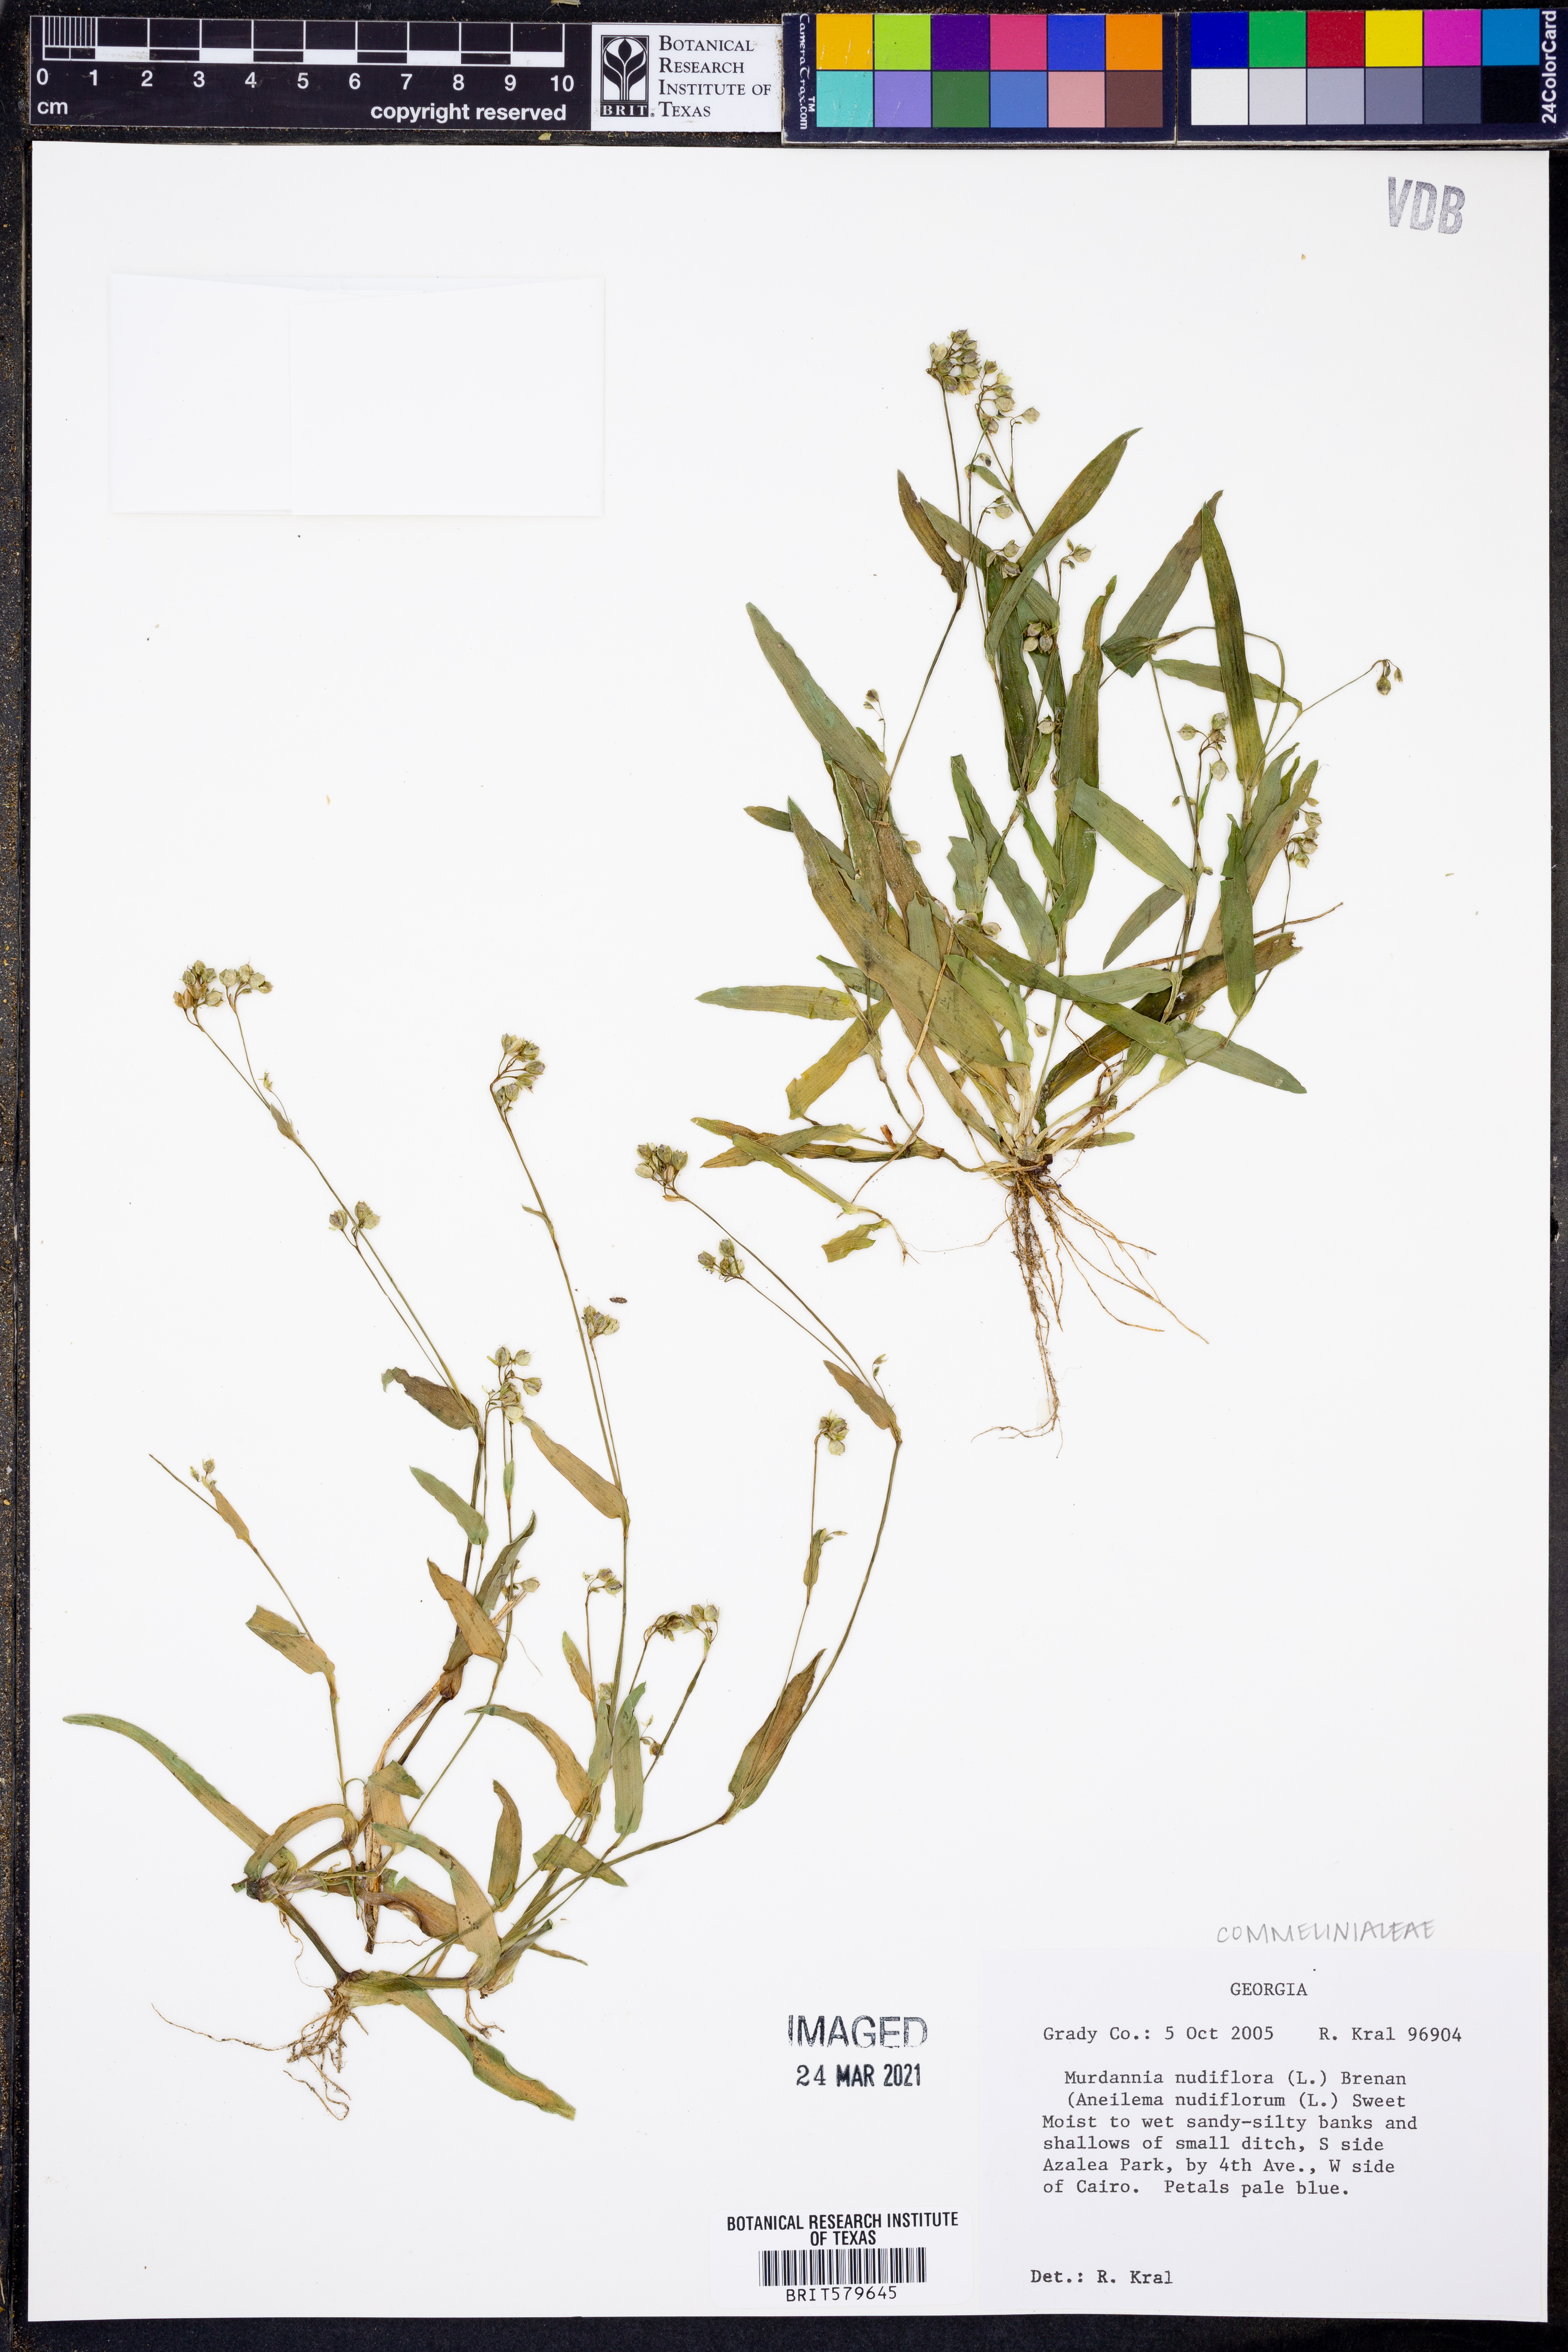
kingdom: Plantae
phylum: Tracheophyta
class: Liliopsida
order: Commelinales
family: Commelinaceae
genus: Murdannia
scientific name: Murdannia nudiflora
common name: Nakedstem dewflower
